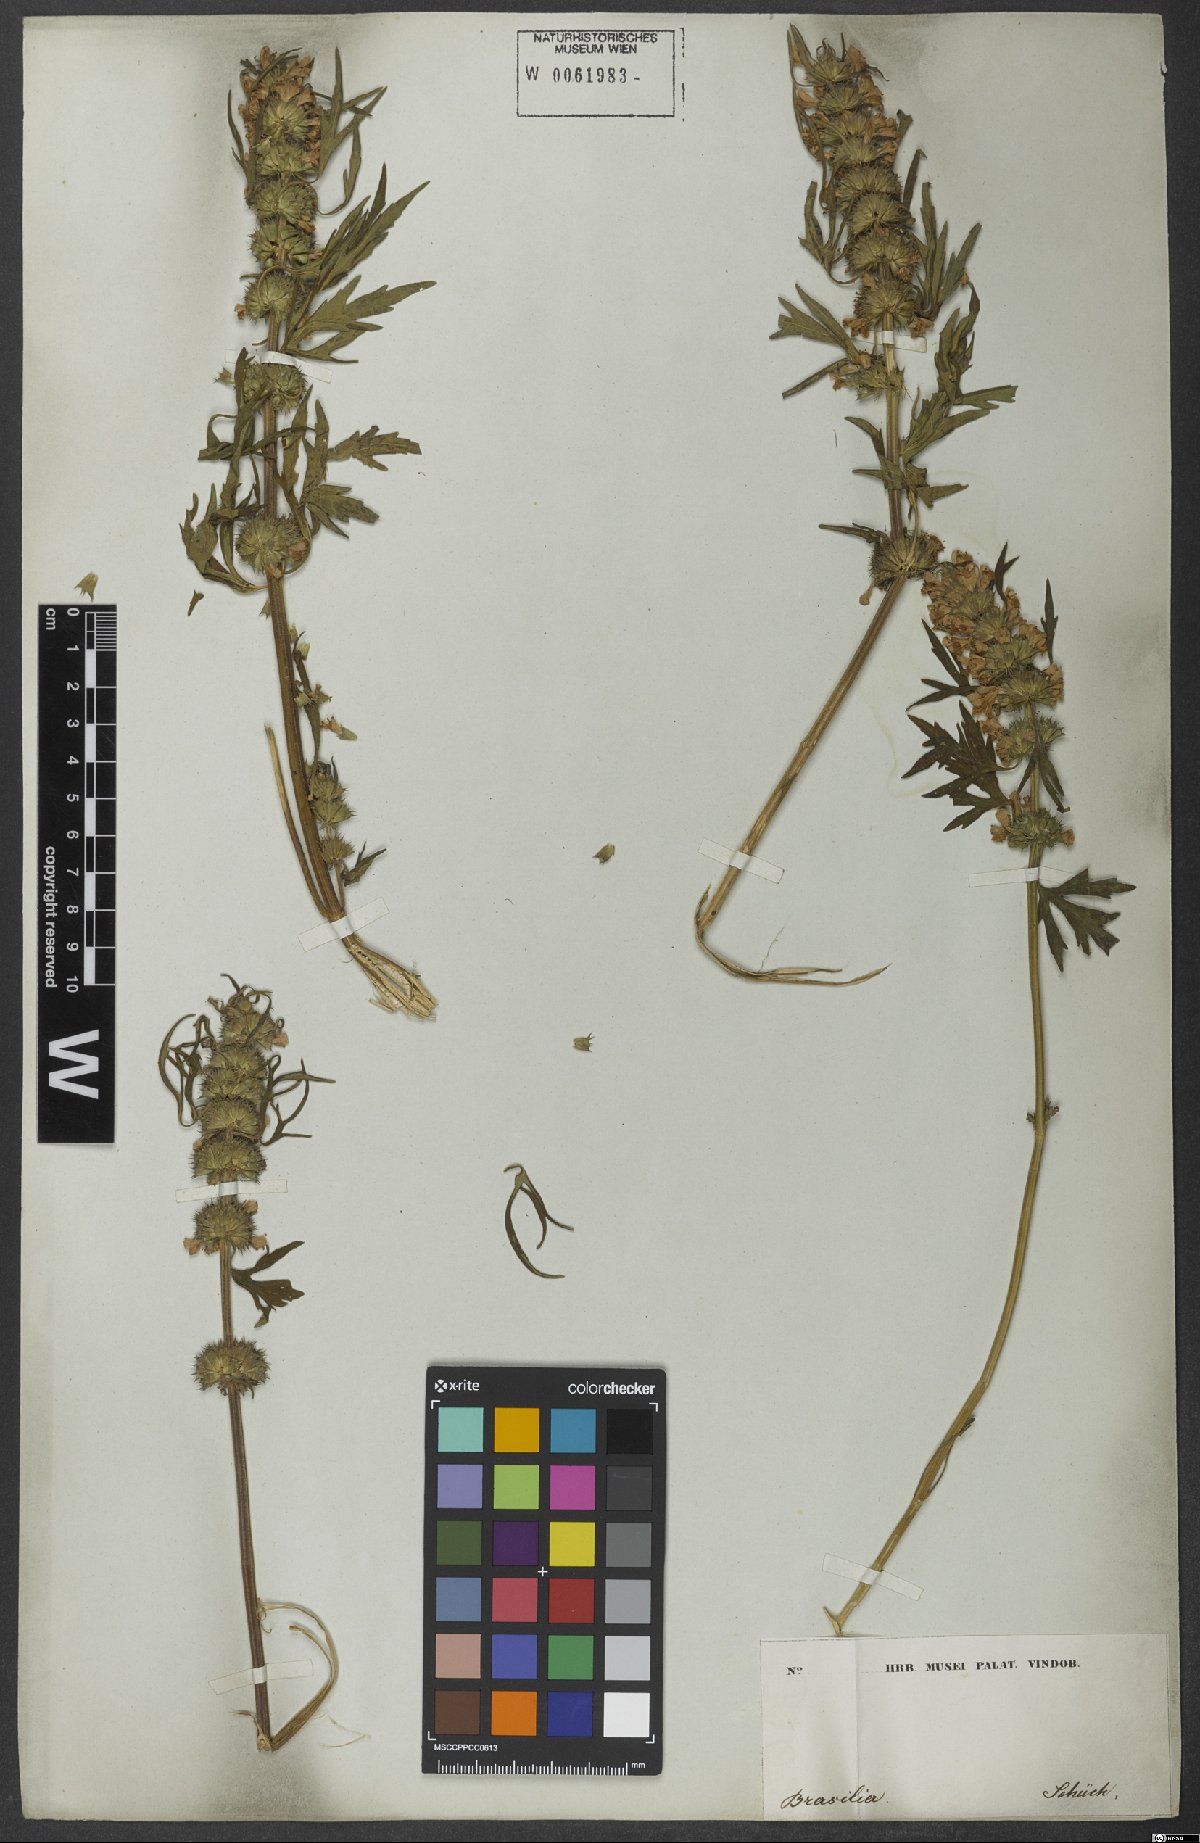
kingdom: Plantae
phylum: Tracheophyta
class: Magnoliopsida
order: Lamiales
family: Lamiaceae
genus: Leonurus
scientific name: Leonurus sibiricus
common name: Honeyweed
